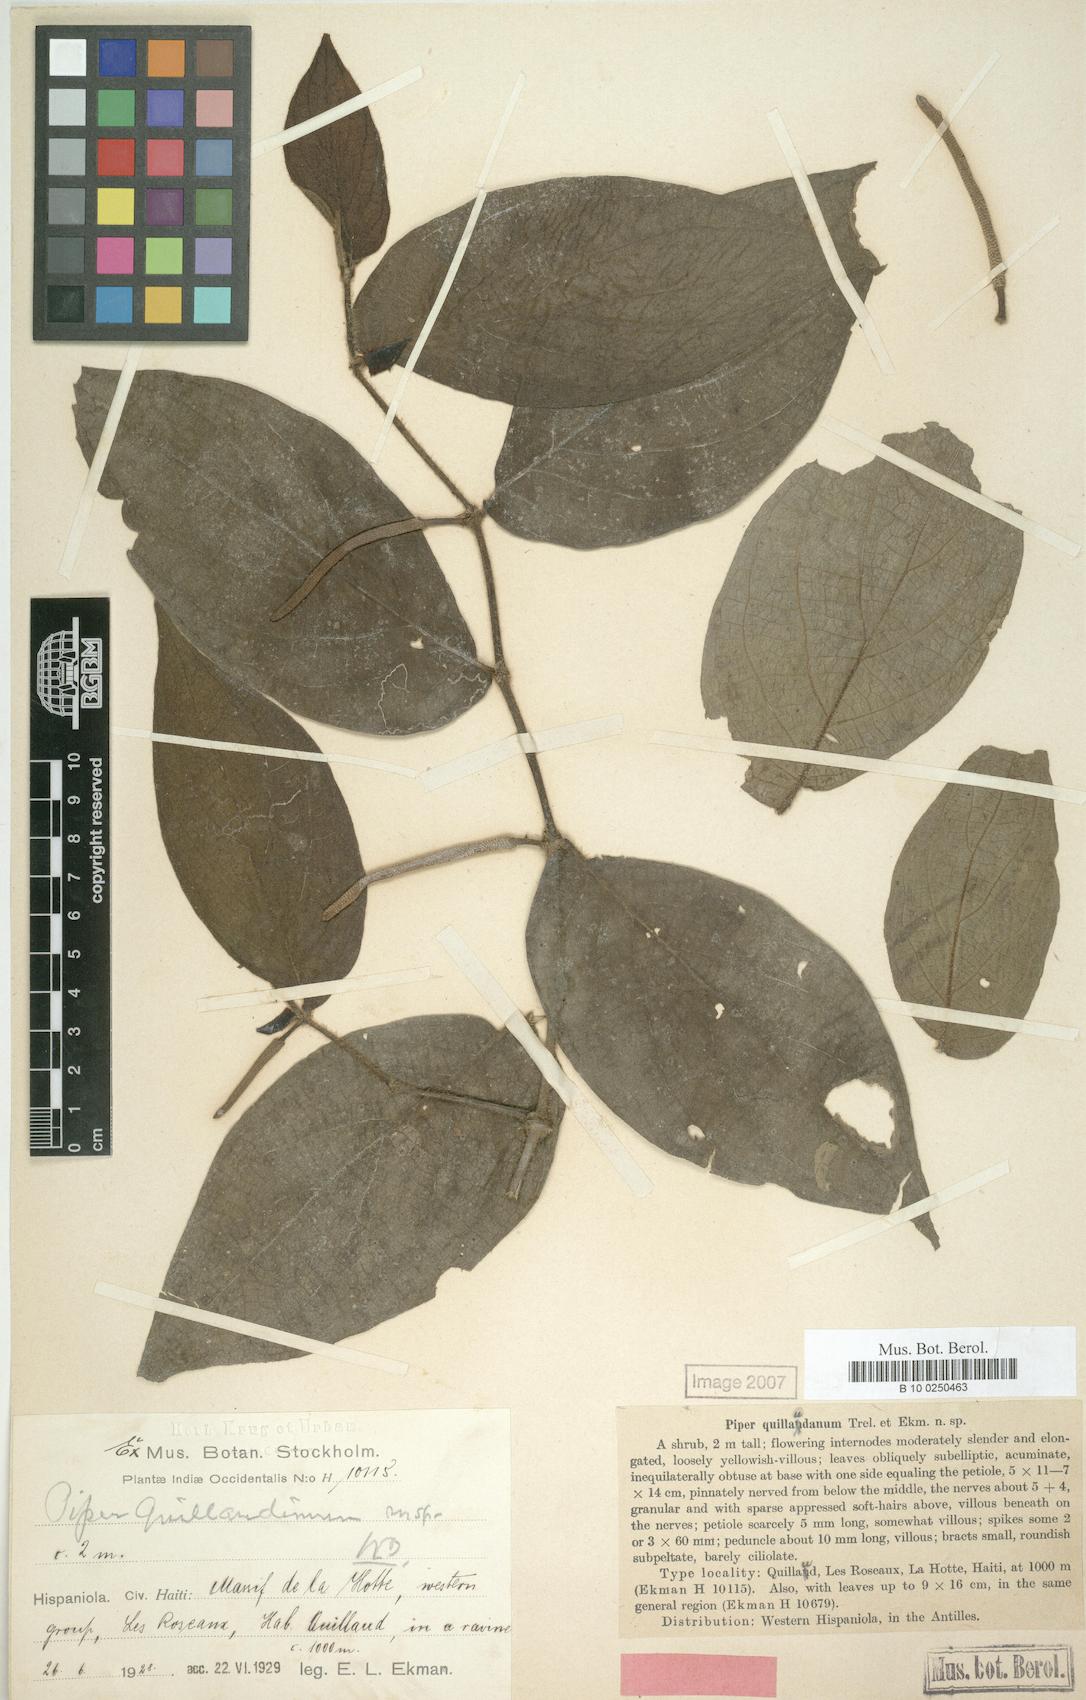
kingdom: Plantae
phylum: Tracheophyta
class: Magnoliopsida
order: Piperales
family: Piperaceae
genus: Piper
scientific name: Piper vanderveldeanum
